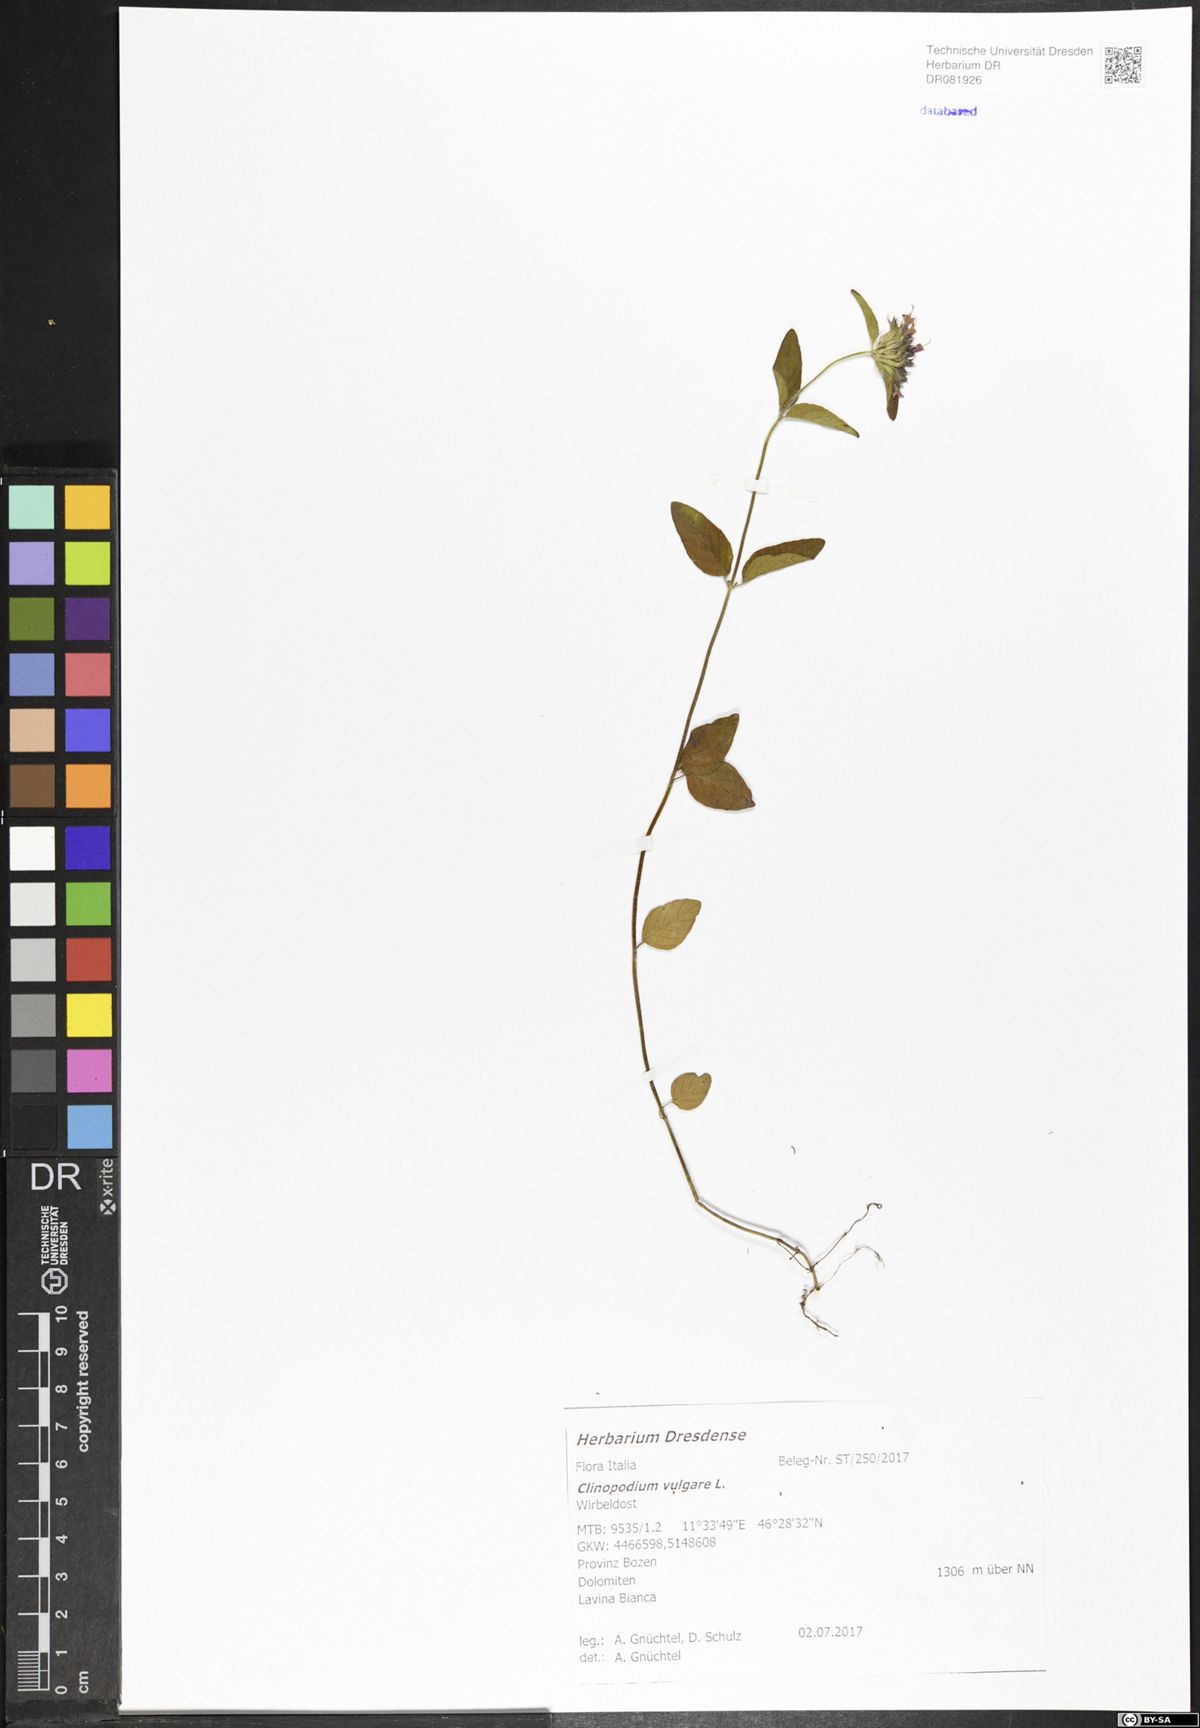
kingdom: Plantae
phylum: Tracheophyta
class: Magnoliopsida
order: Lamiales
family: Lamiaceae
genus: Clinopodium
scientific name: Clinopodium vulgare
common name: Wild basil
